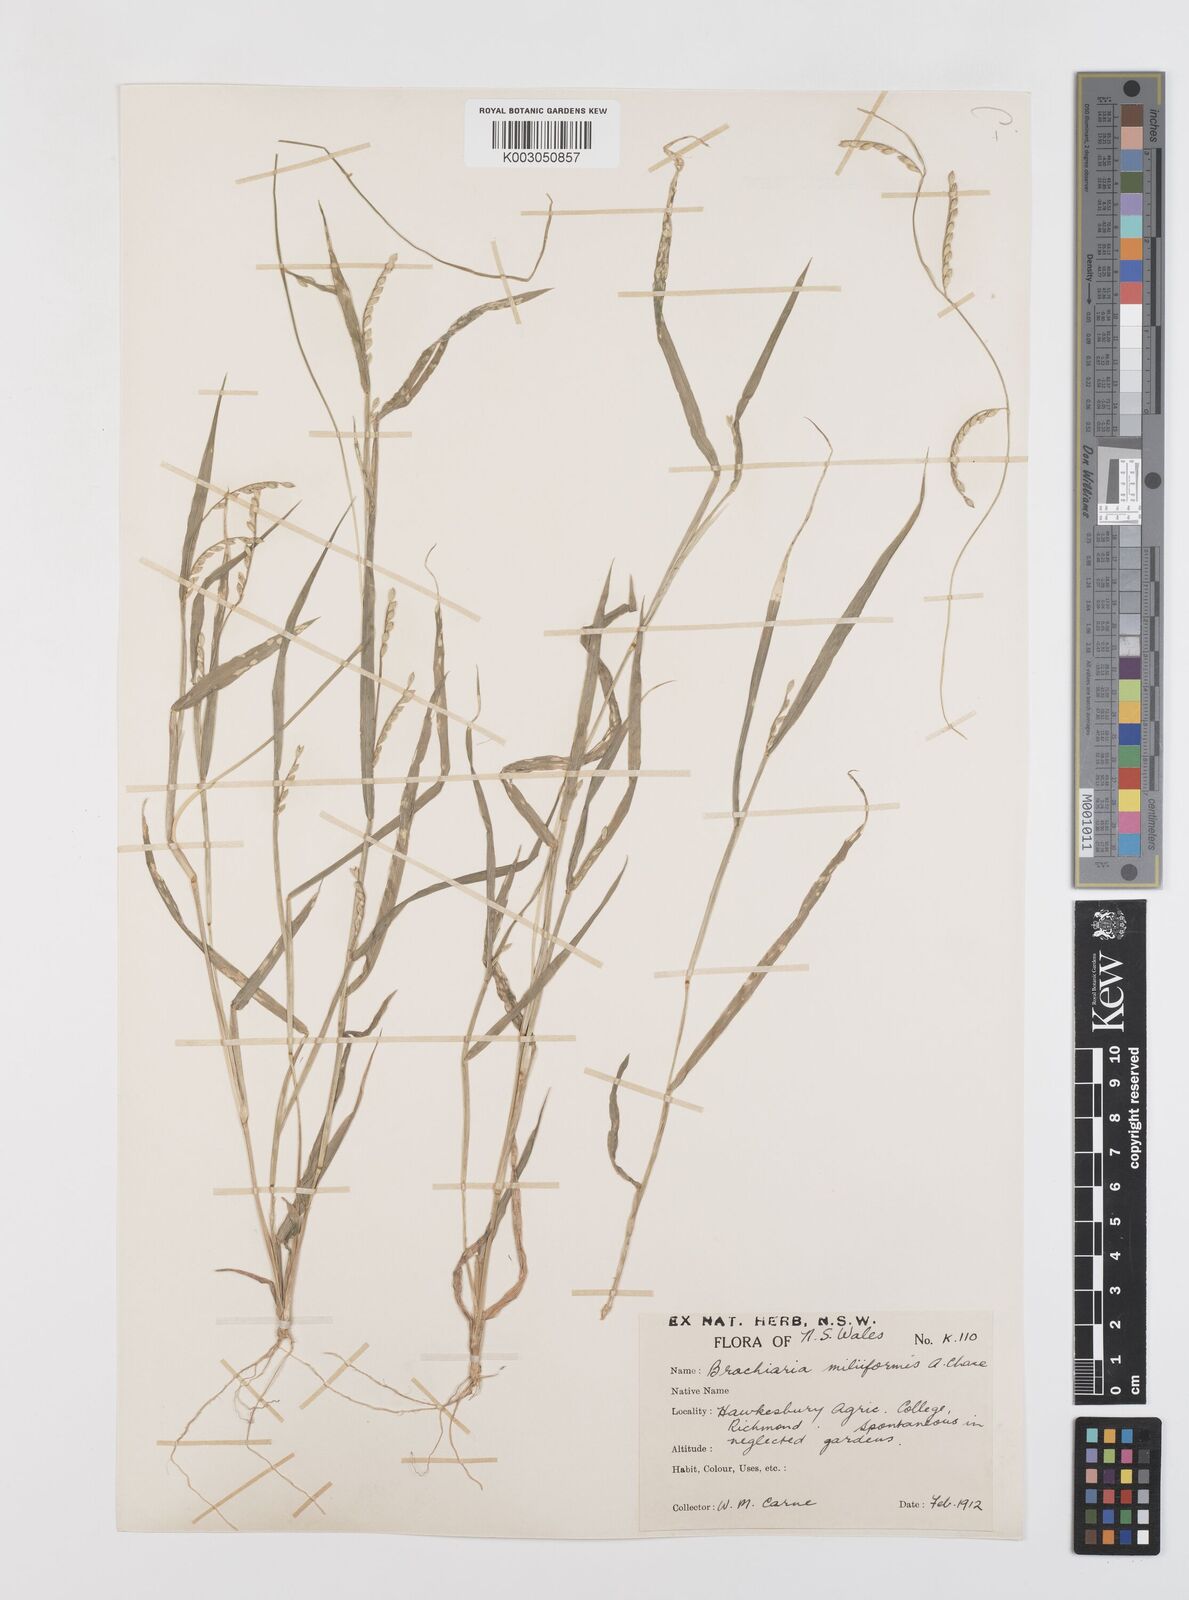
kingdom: Plantae
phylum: Tracheophyta
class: Liliopsida
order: Poales
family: Poaceae
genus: Urochloa
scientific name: Urochloa subquadripara
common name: Armgrass millet
